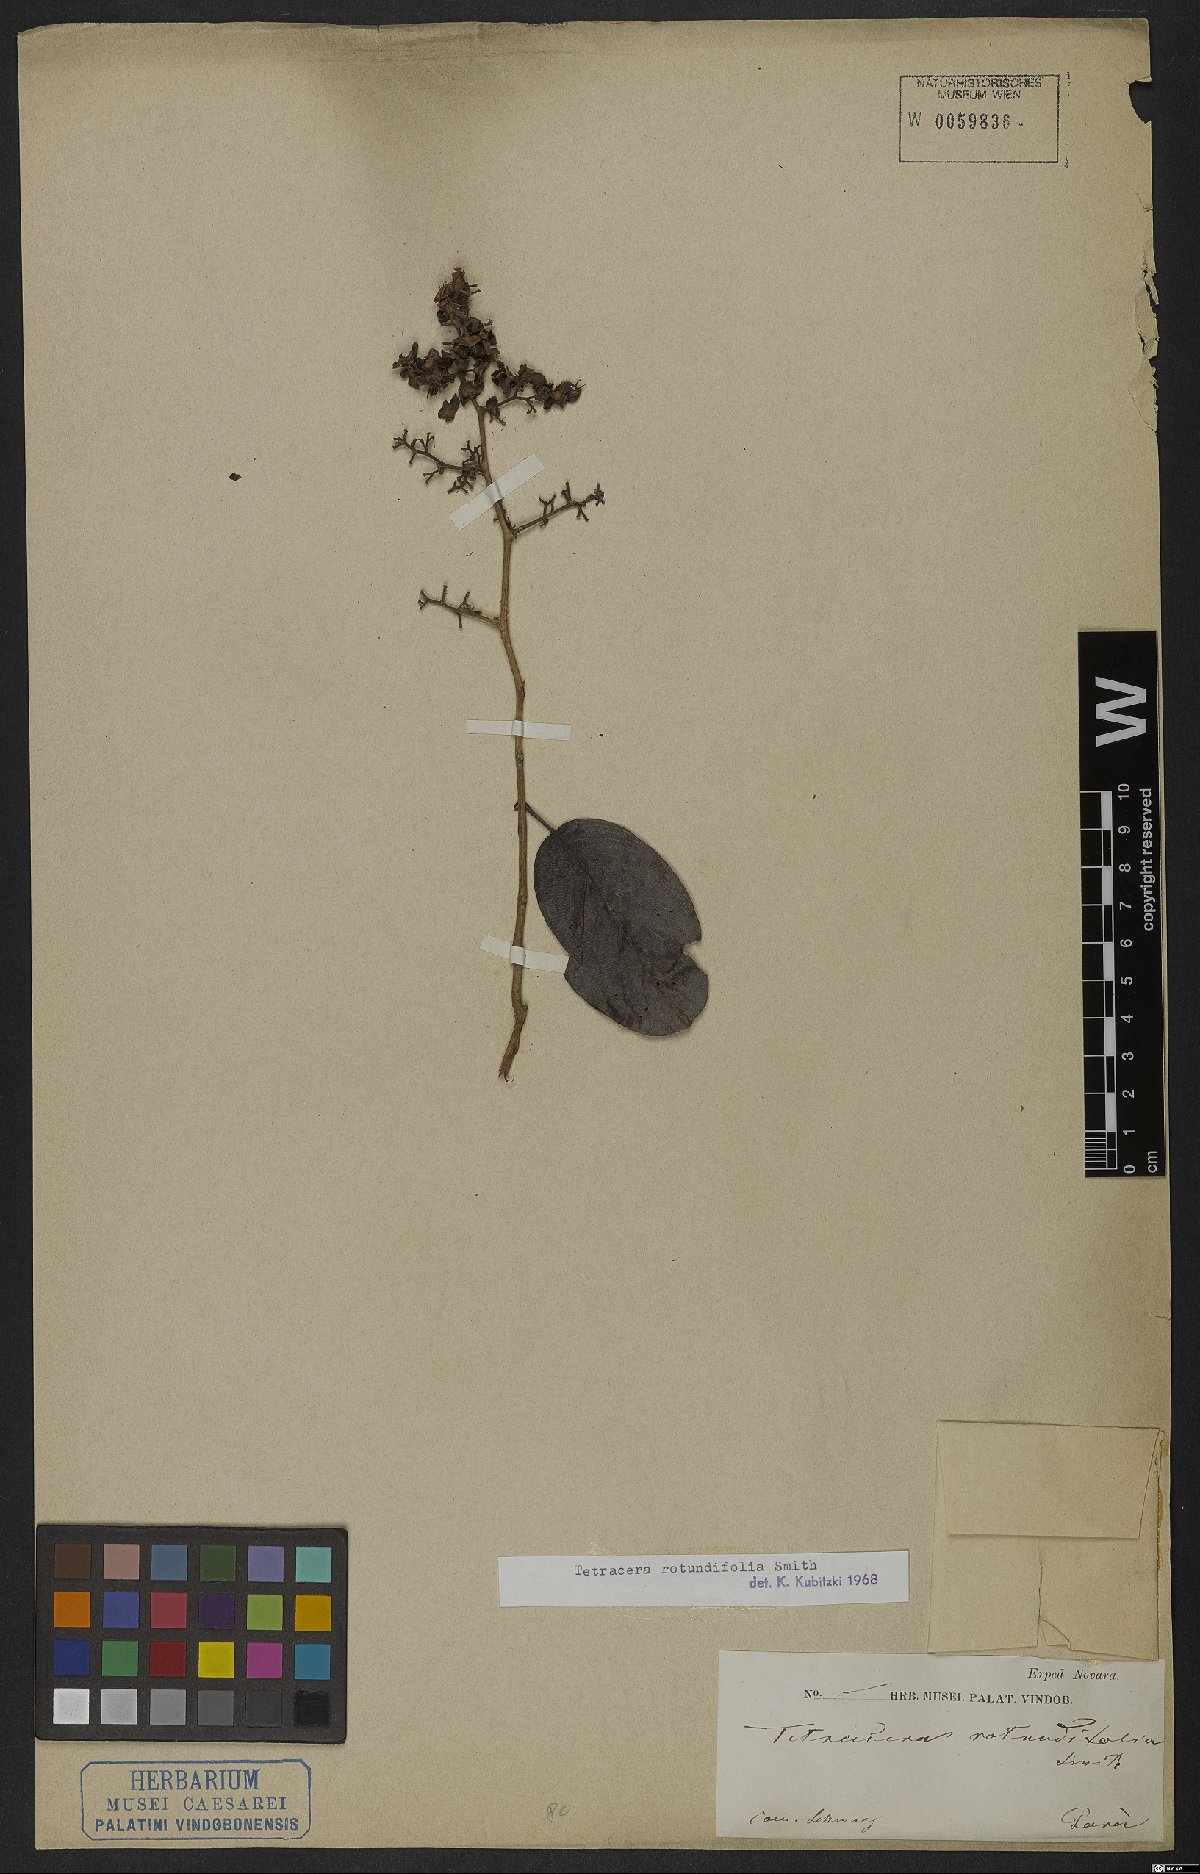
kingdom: Plantae
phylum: Tracheophyta
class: Magnoliopsida
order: Dilleniales
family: Dilleniaceae
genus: Tetracera
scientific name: Tetracera rotundifolia
